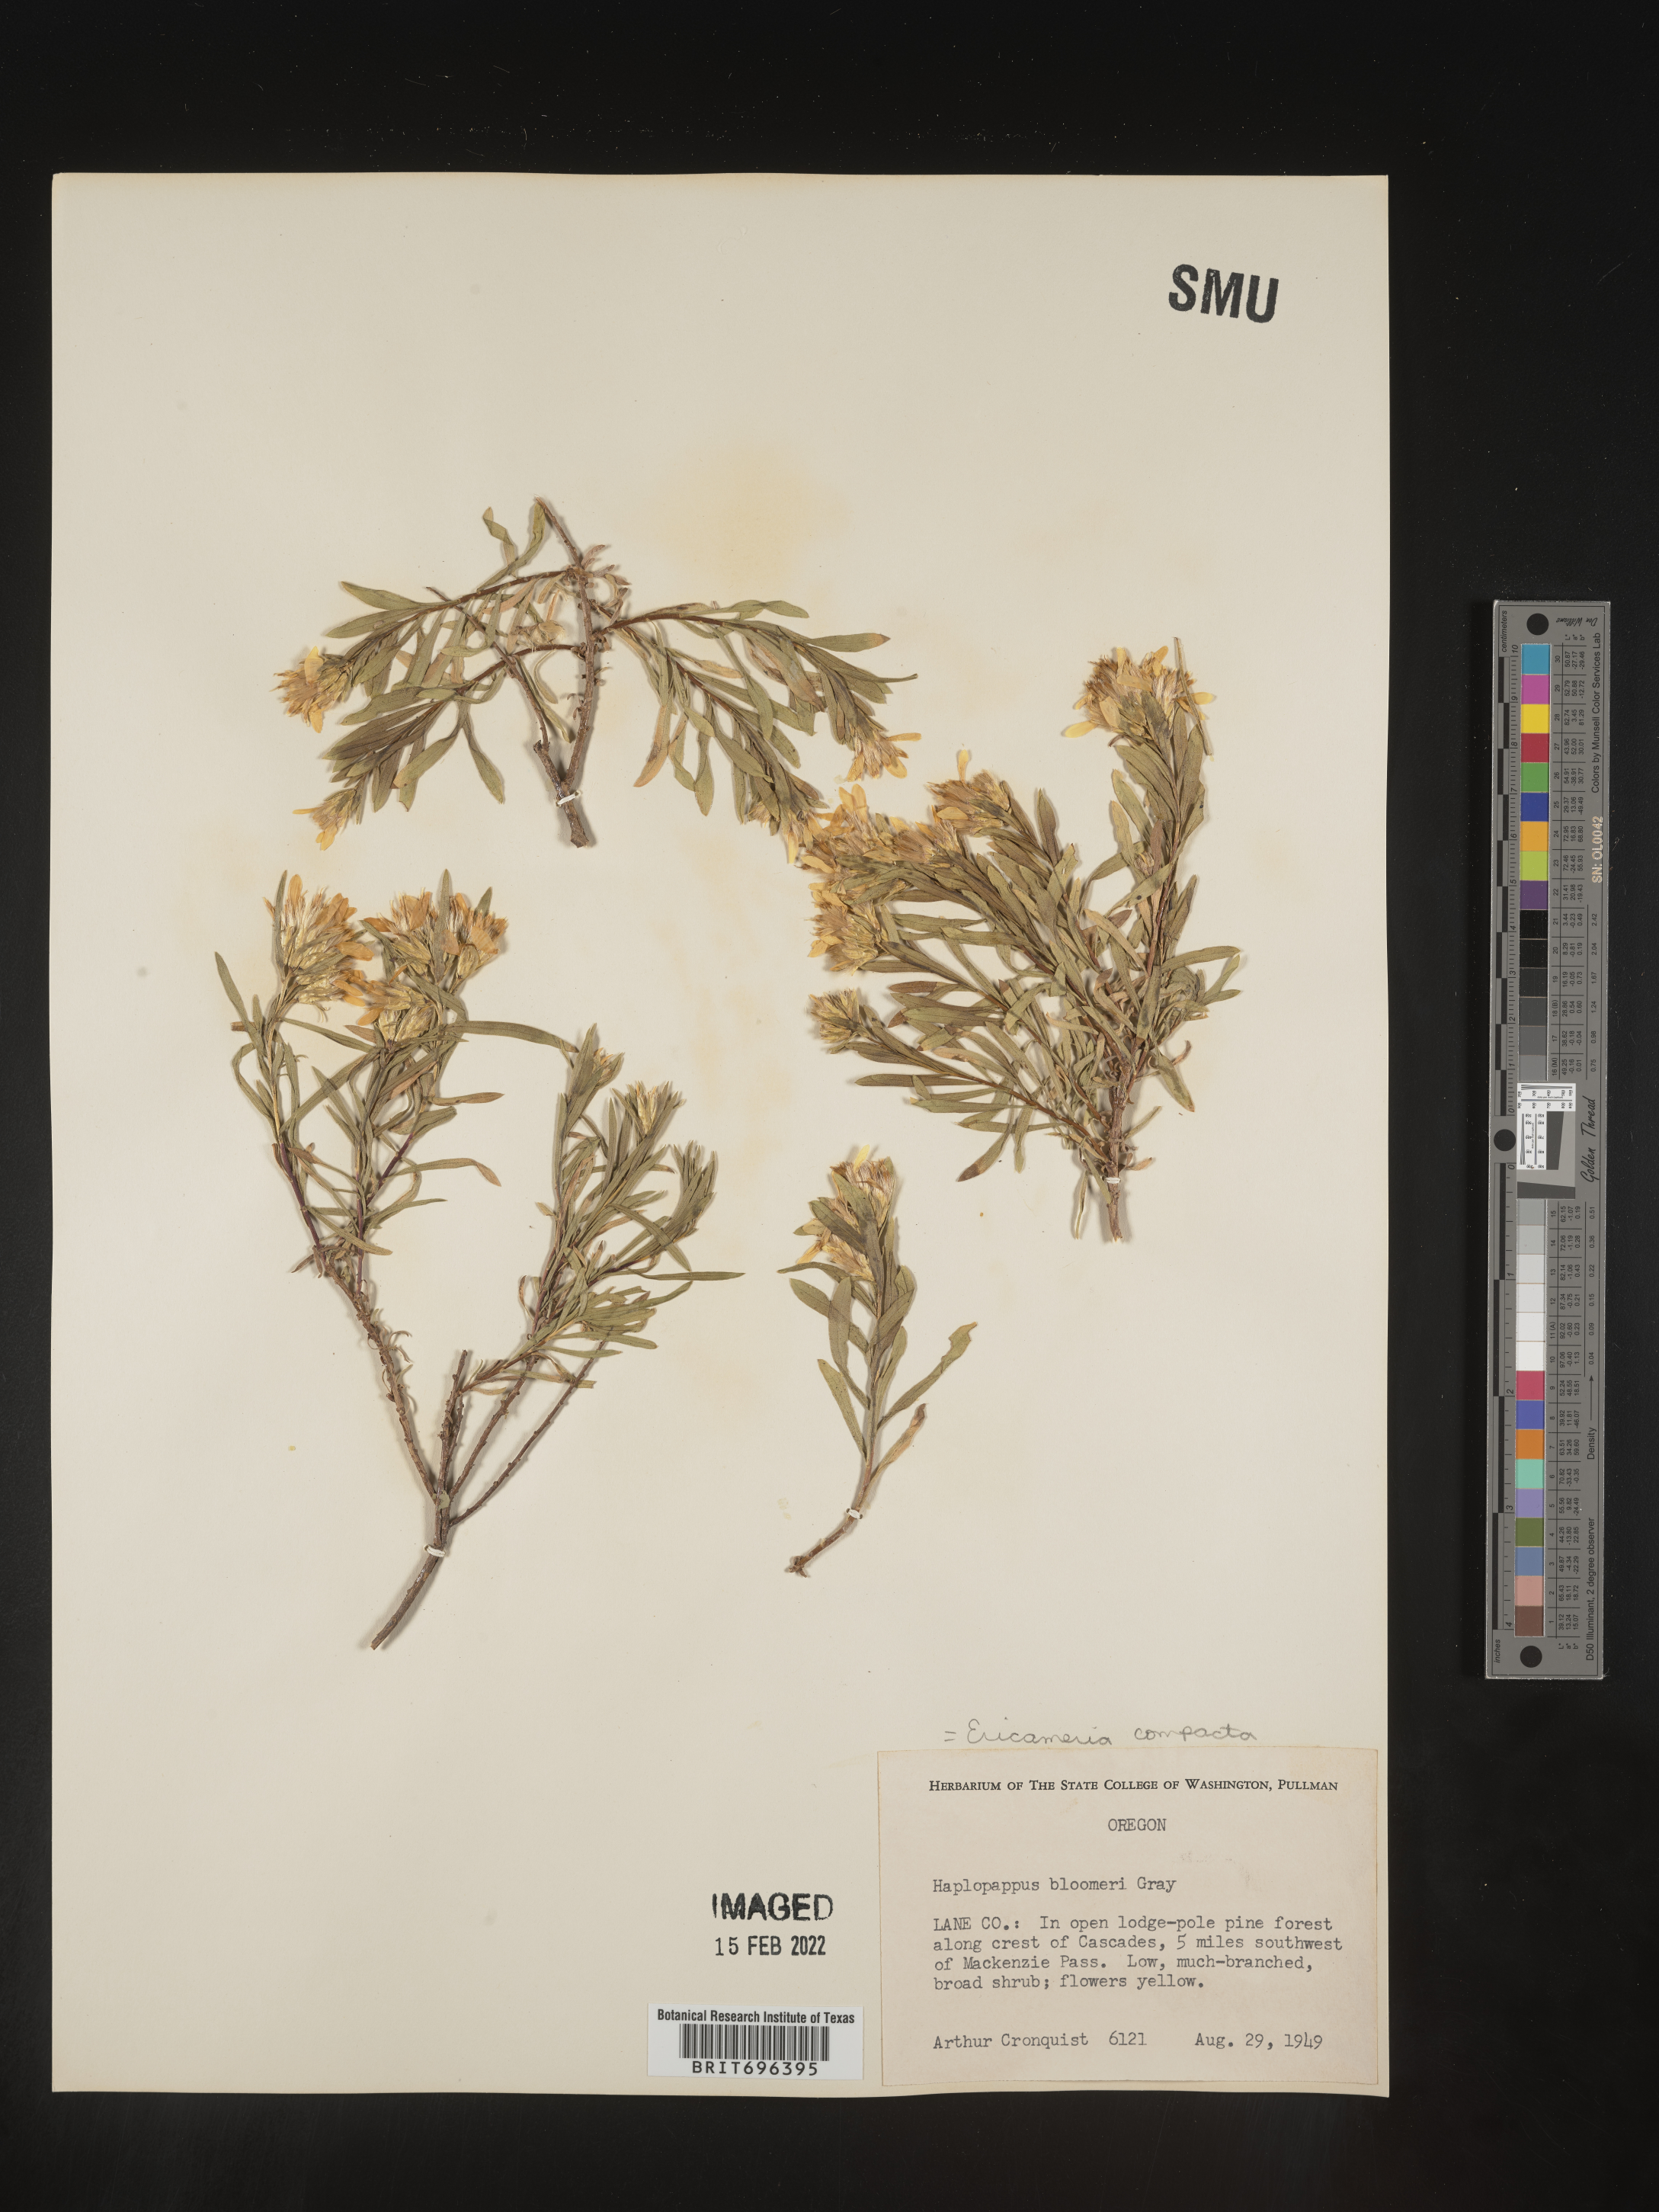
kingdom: Plantae
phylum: Tracheophyta
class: Magnoliopsida
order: Asterales
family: Asteraceae
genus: Ericameria
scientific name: Ericameria compacta
